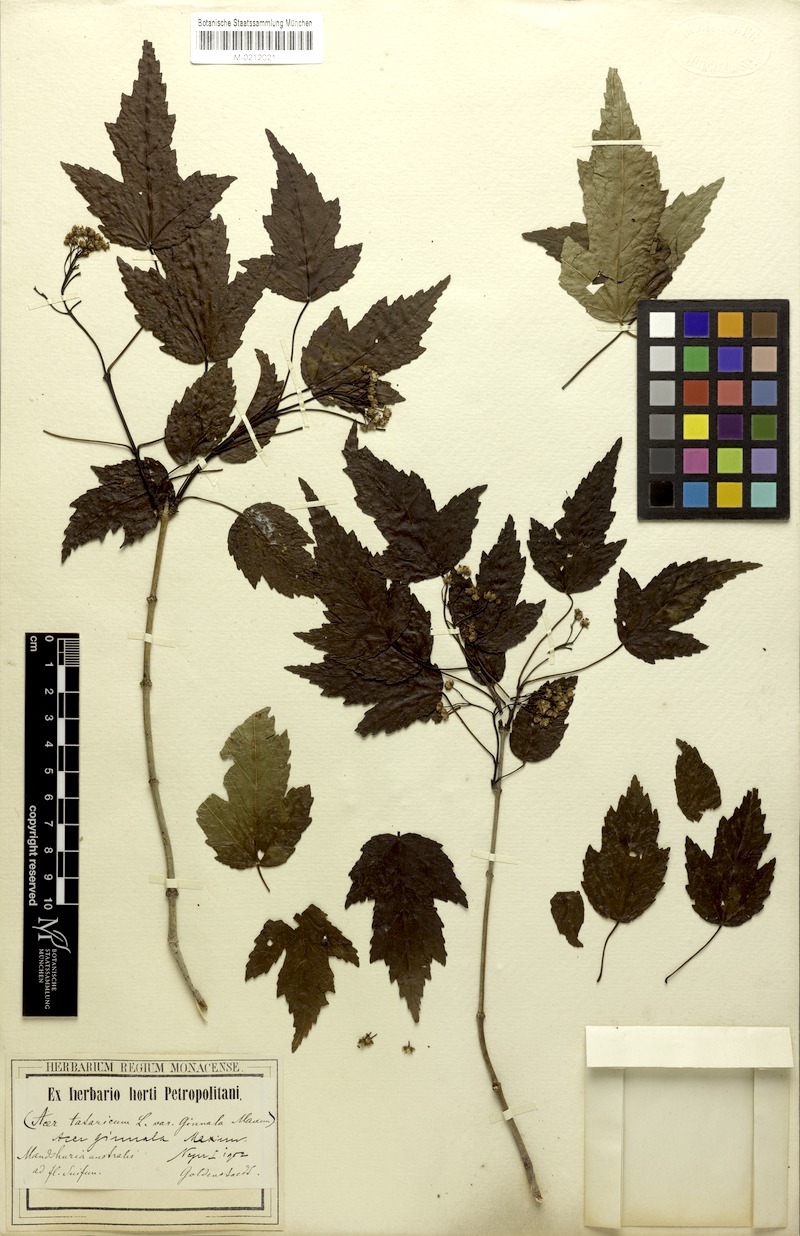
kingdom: Plantae
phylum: Tracheophyta
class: Magnoliopsida
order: Sapindales
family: Sapindaceae
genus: Acer
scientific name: Acer tataricum
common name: Tartar maple
